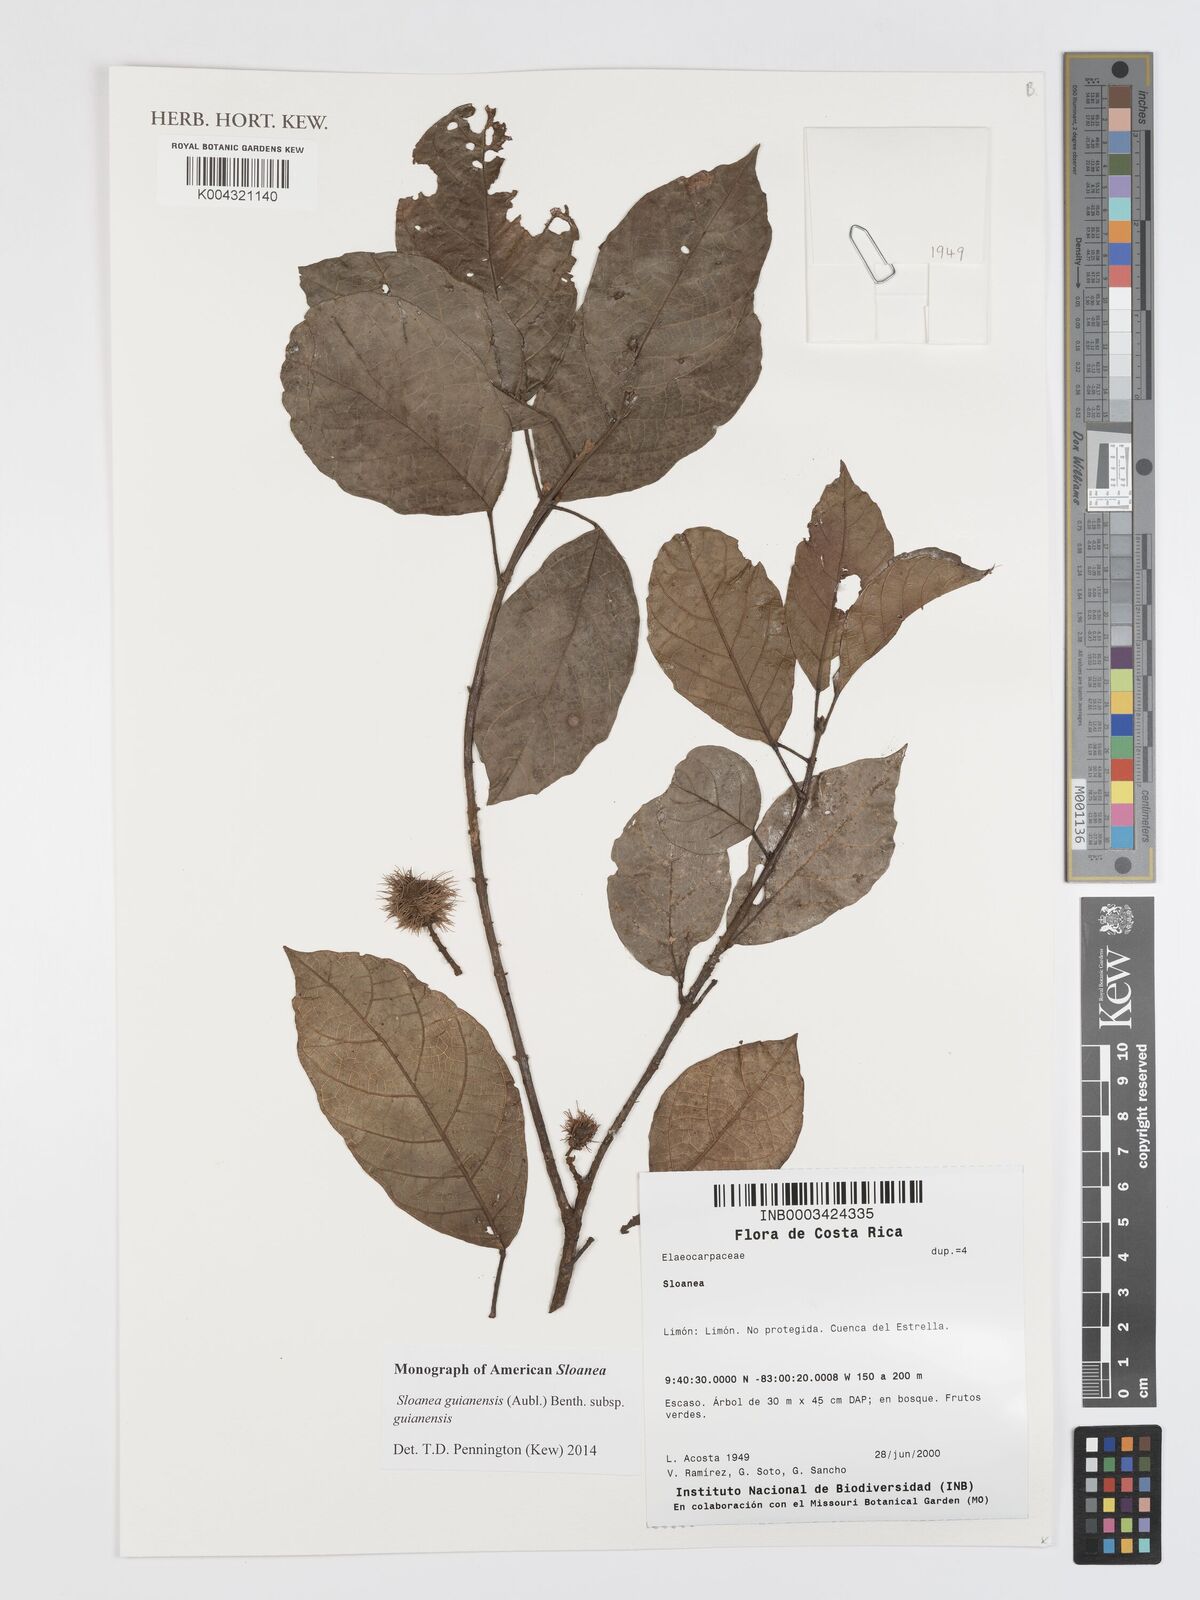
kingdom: Plantae
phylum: Tracheophyta
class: Magnoliopsida
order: Oxalidales
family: Elaeocarpaceae
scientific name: Elaeocarpaceae
